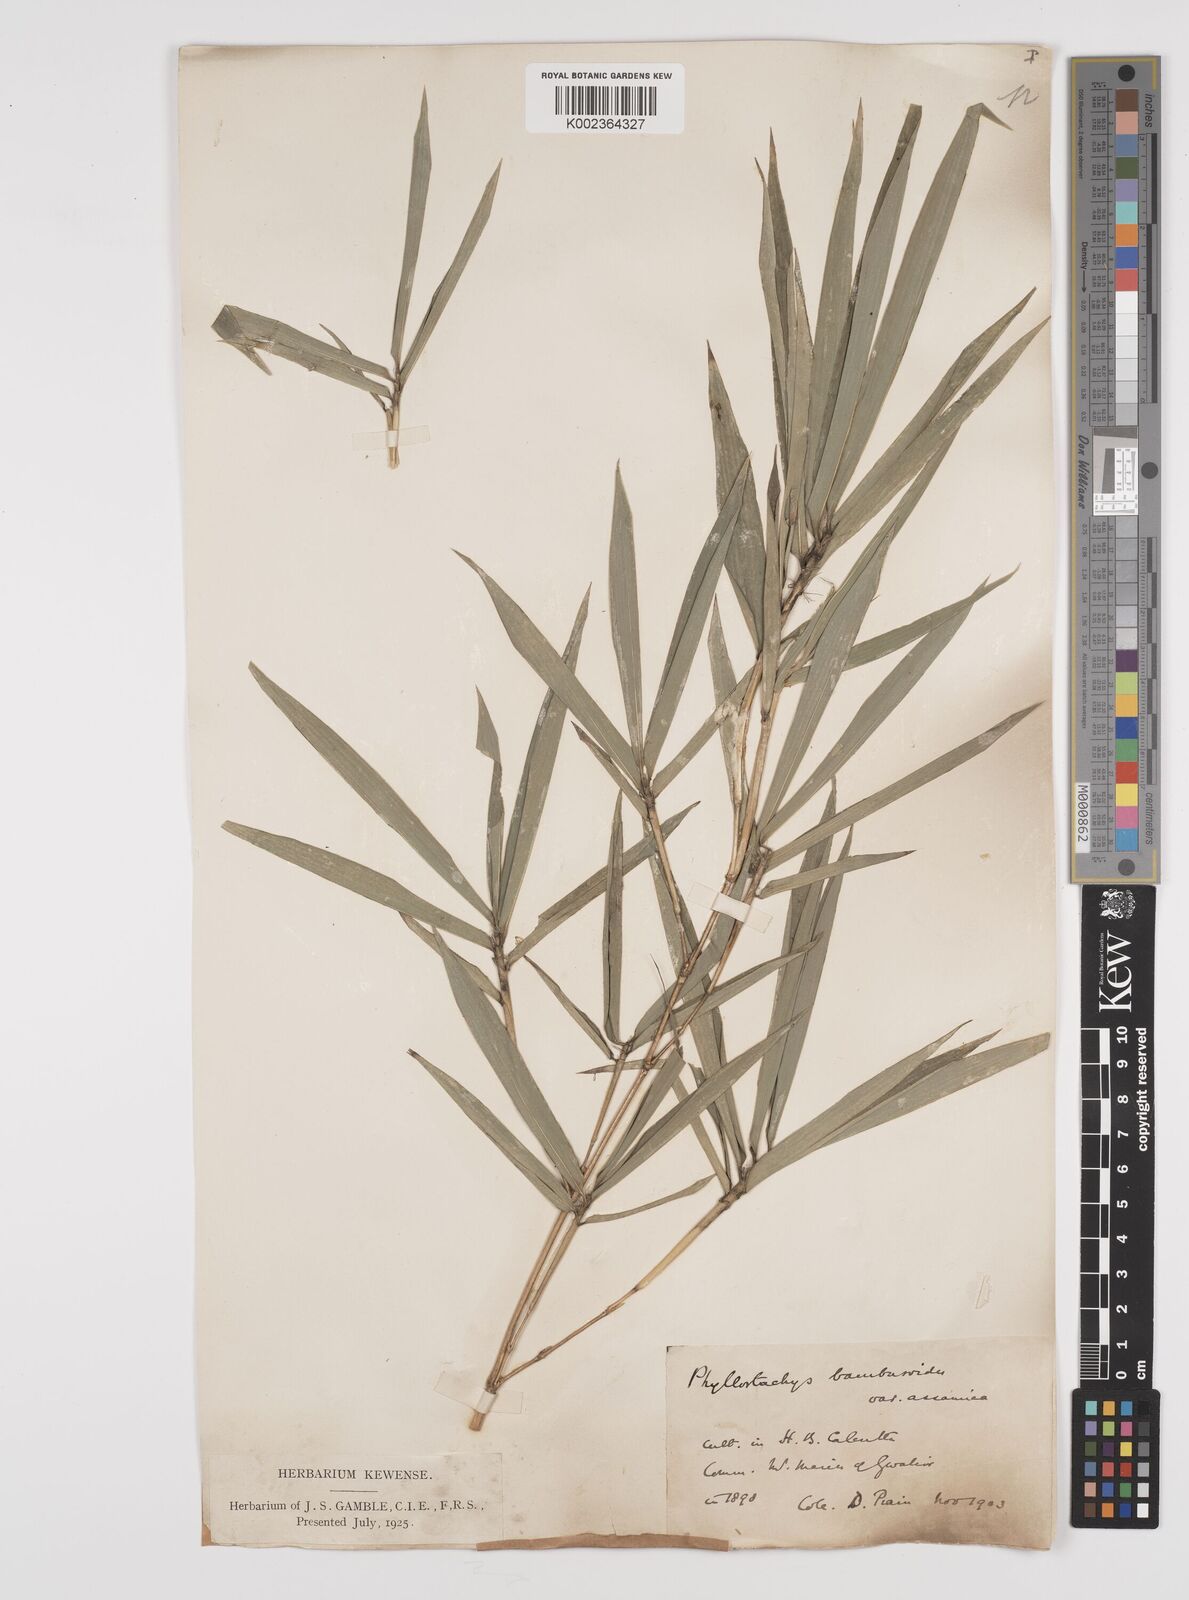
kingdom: Plantae
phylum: Tracheophyta
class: Liliopsida
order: Poales
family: Poaceae
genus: Phyllostachys
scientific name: Phyllostachys reticulata
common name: Bamboo
